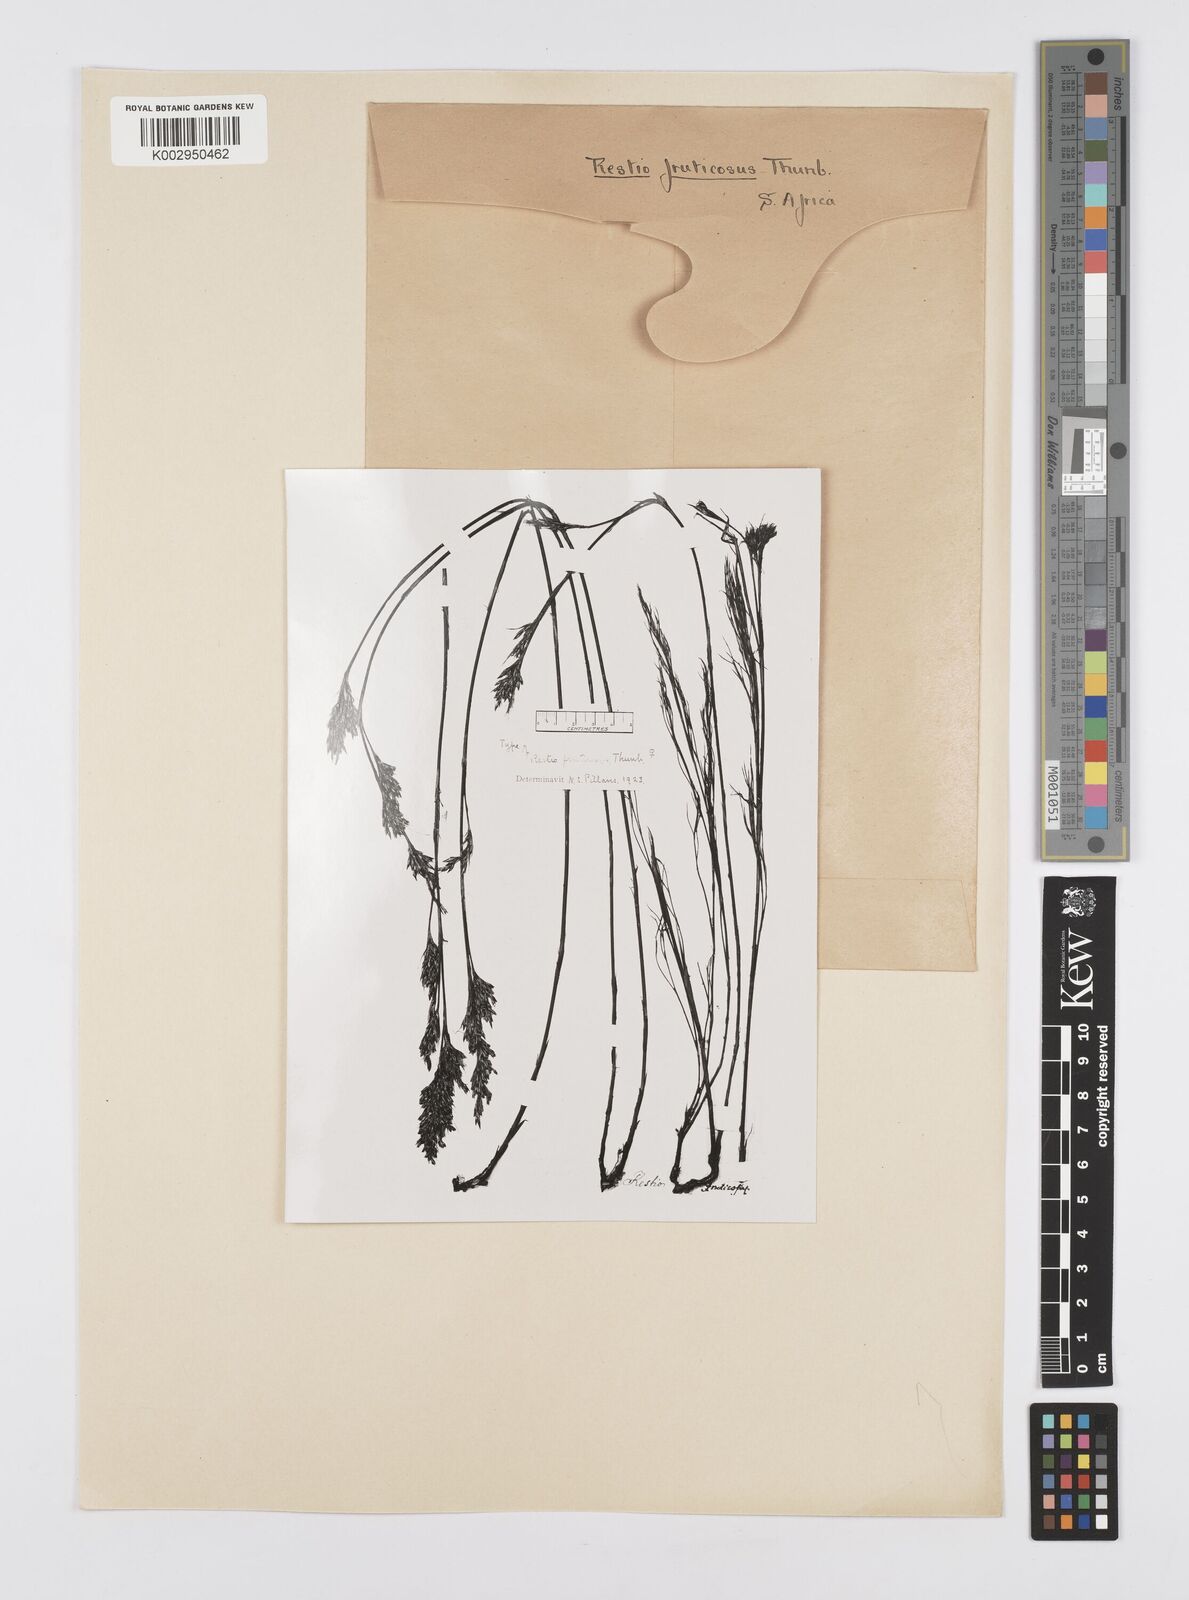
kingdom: Plantae
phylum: Tracheophyta
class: Liliopsida
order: Poales
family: Restionaceae
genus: Rhodocoma
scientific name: Rhodocoma fruticosa
